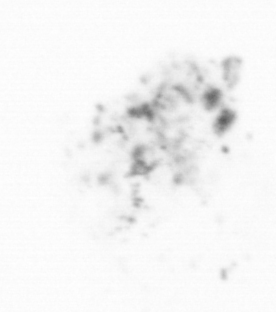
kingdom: Chromista
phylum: Ochrophyta
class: Bacillariophyceae
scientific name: Bacillariophyceae
